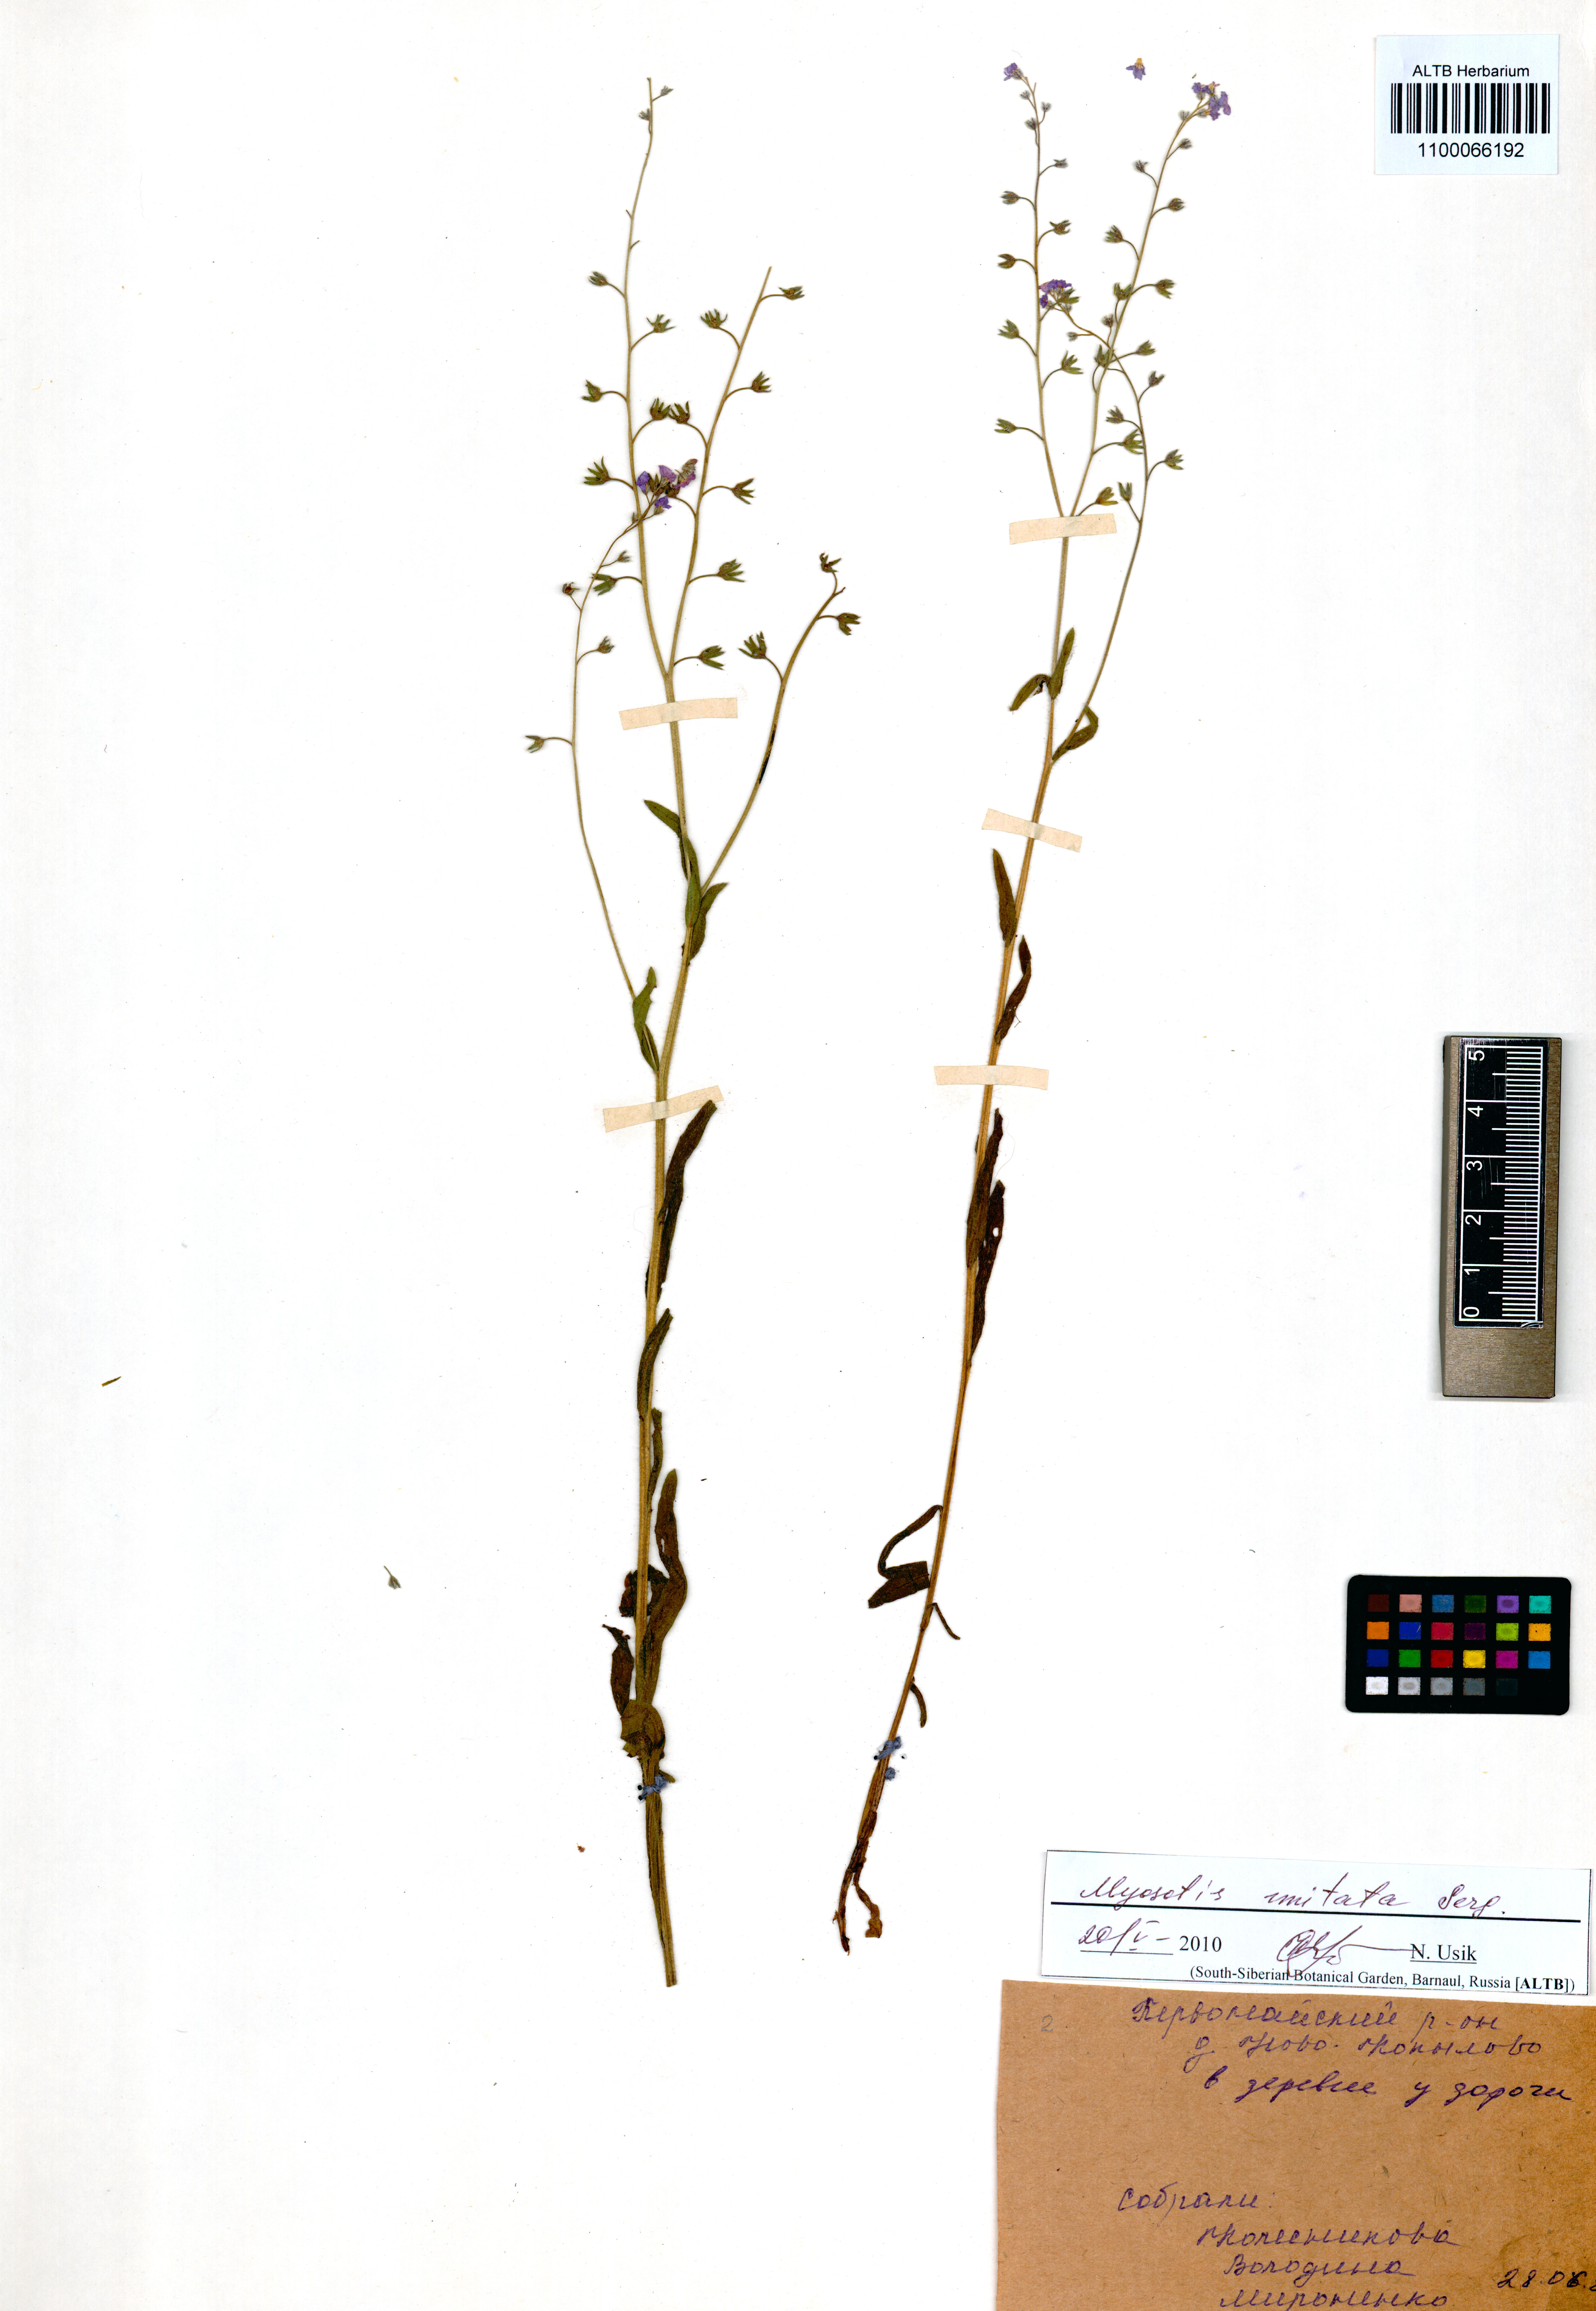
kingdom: Plantae
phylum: Tracheophyta
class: Magnoliopsida
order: Boraginales
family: Boraginaceae
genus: Myosotis
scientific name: Myosotis imitata
